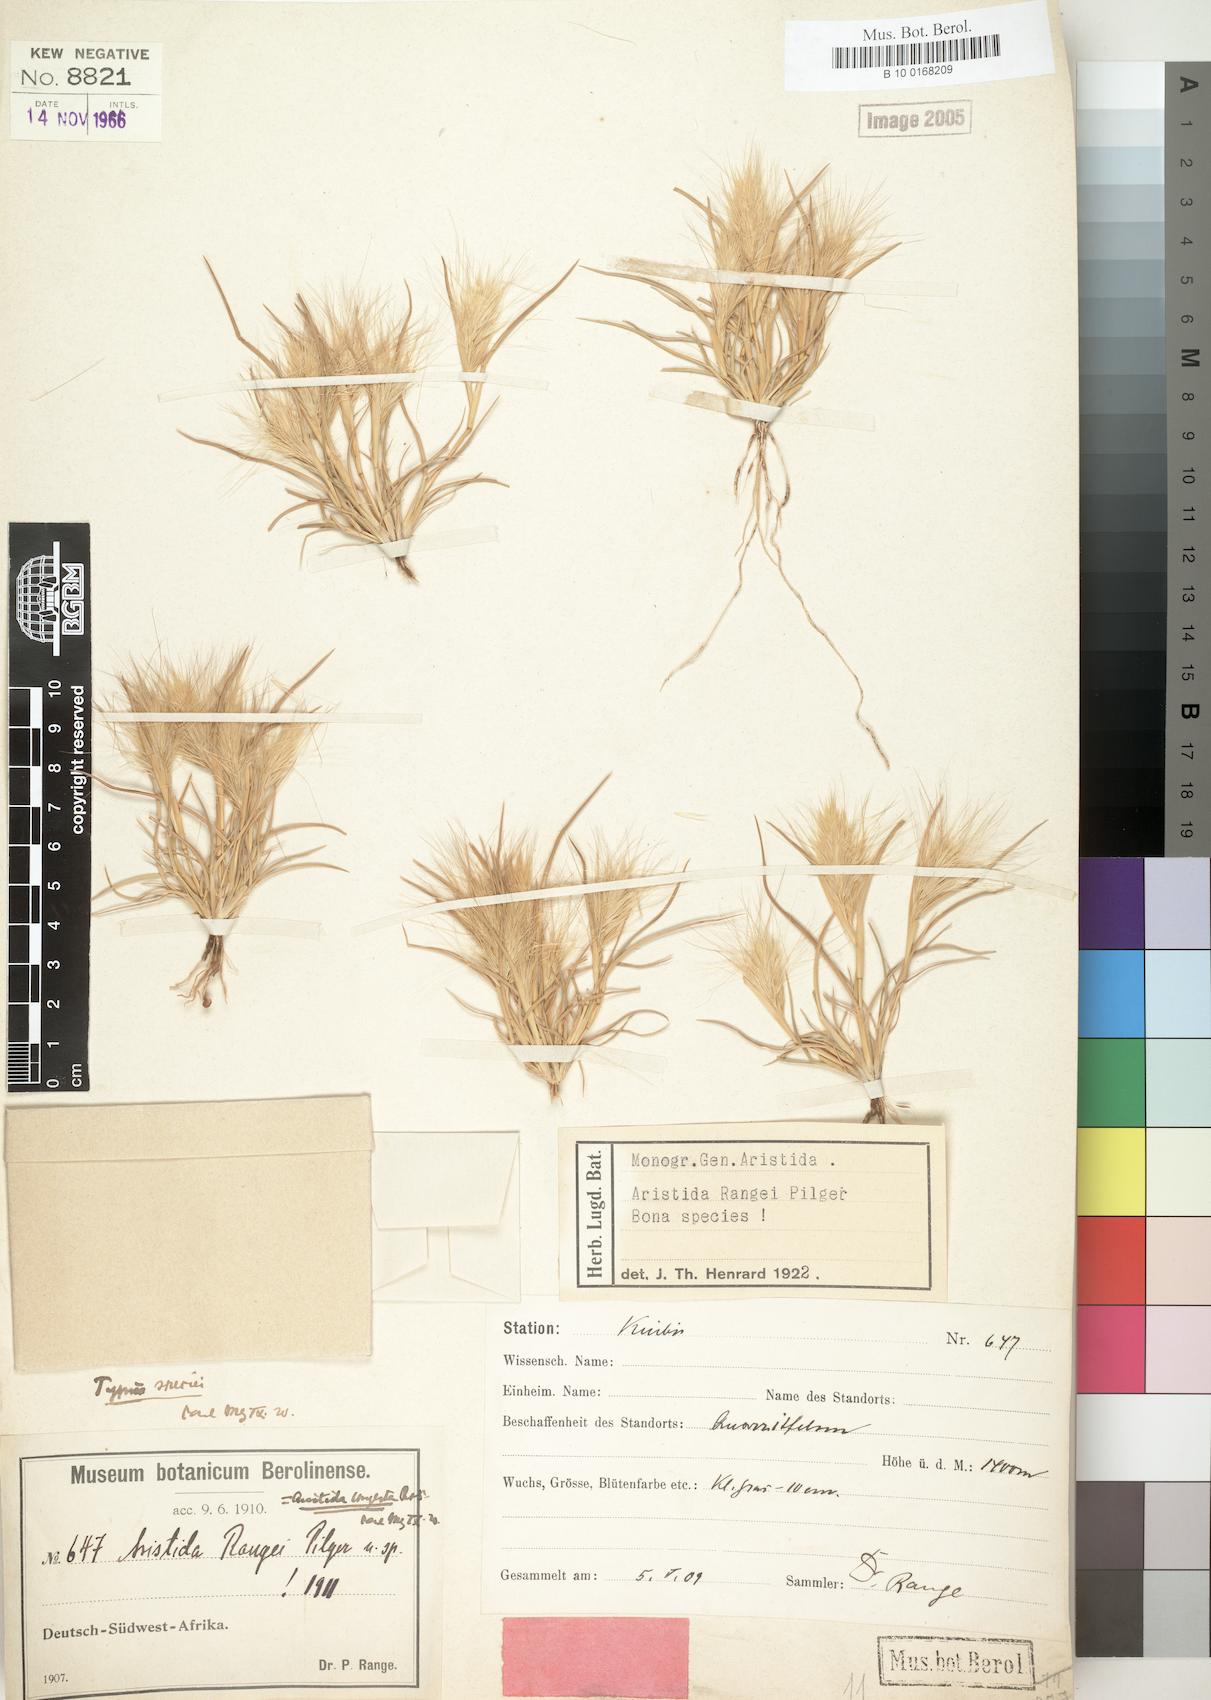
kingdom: Plantae
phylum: Tracheophyta
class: Liliopsida
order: Poales
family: Poaceae
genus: Aristida
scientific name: Aristida congesta
